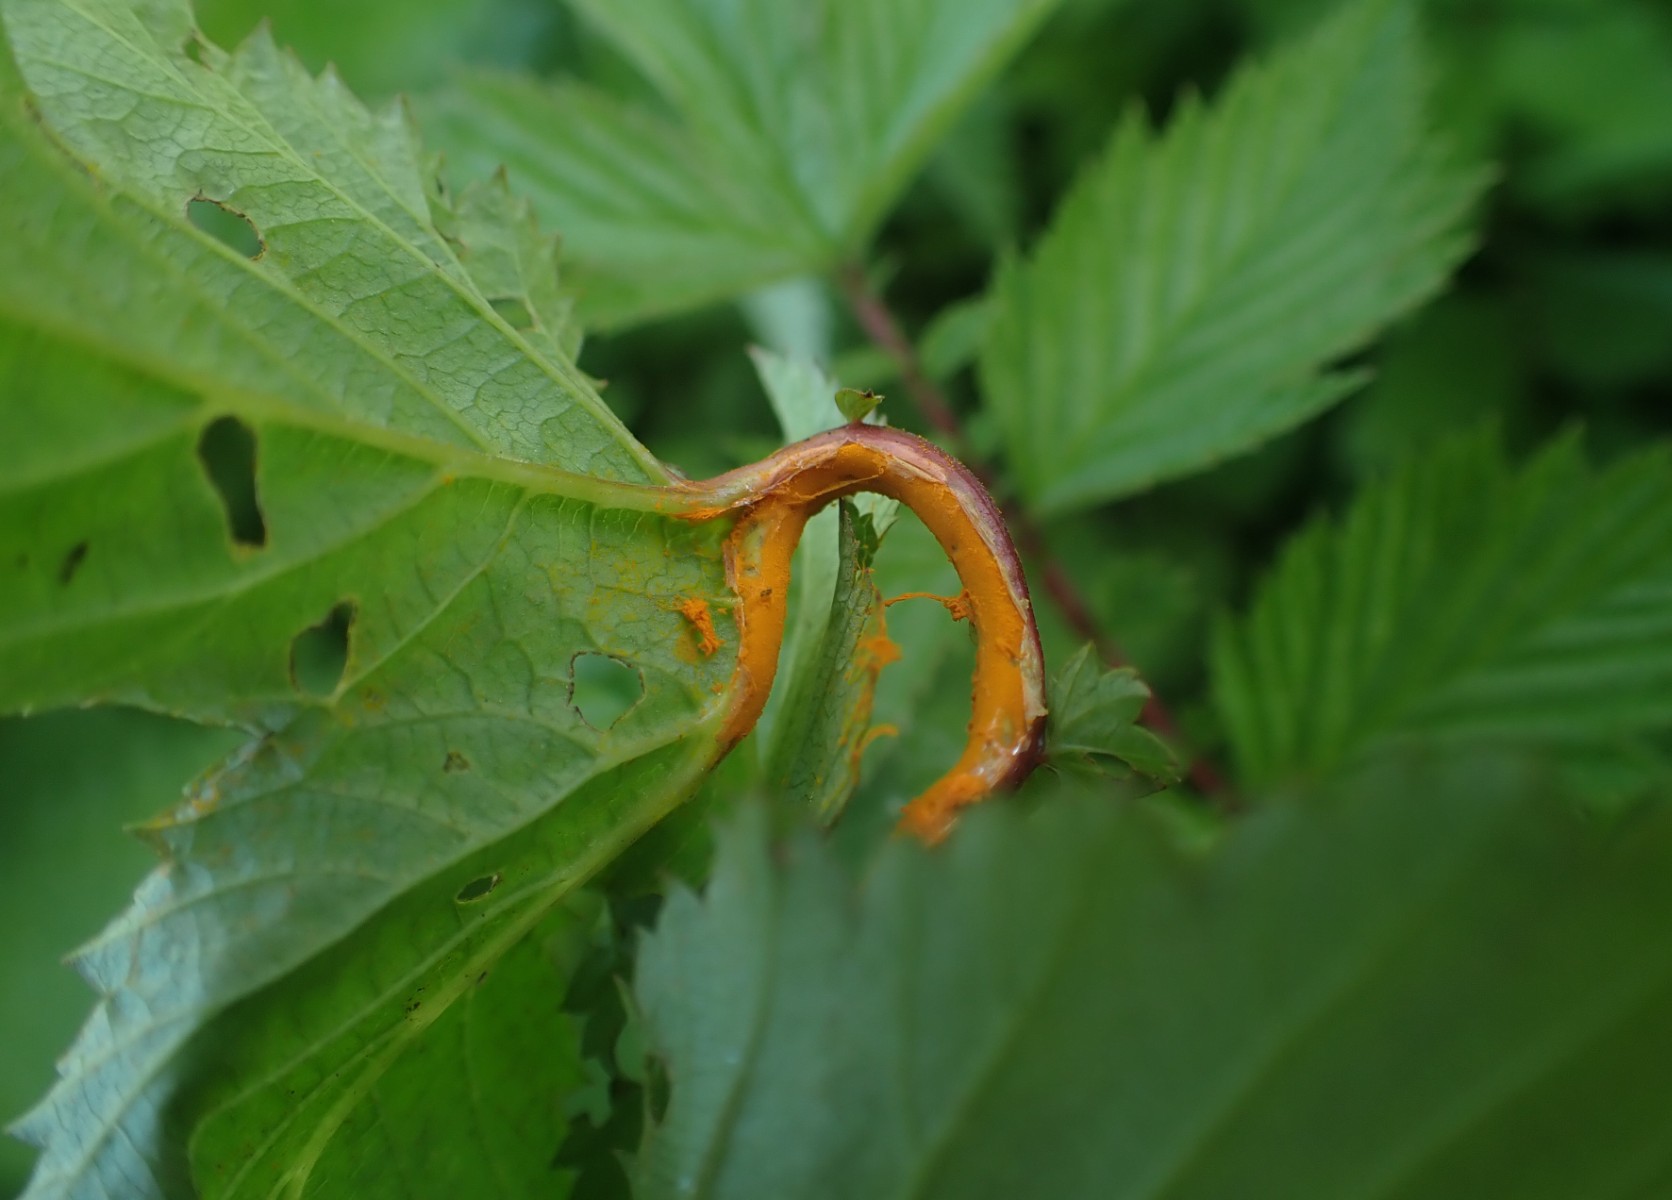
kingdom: Fungi
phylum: Basidiomycota
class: Pucciniomycetes
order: Pucciniales
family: Raveneliaceae
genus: Triphragmium
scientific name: Triphragmium ulmariae
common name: almindelig mjødurtrust
